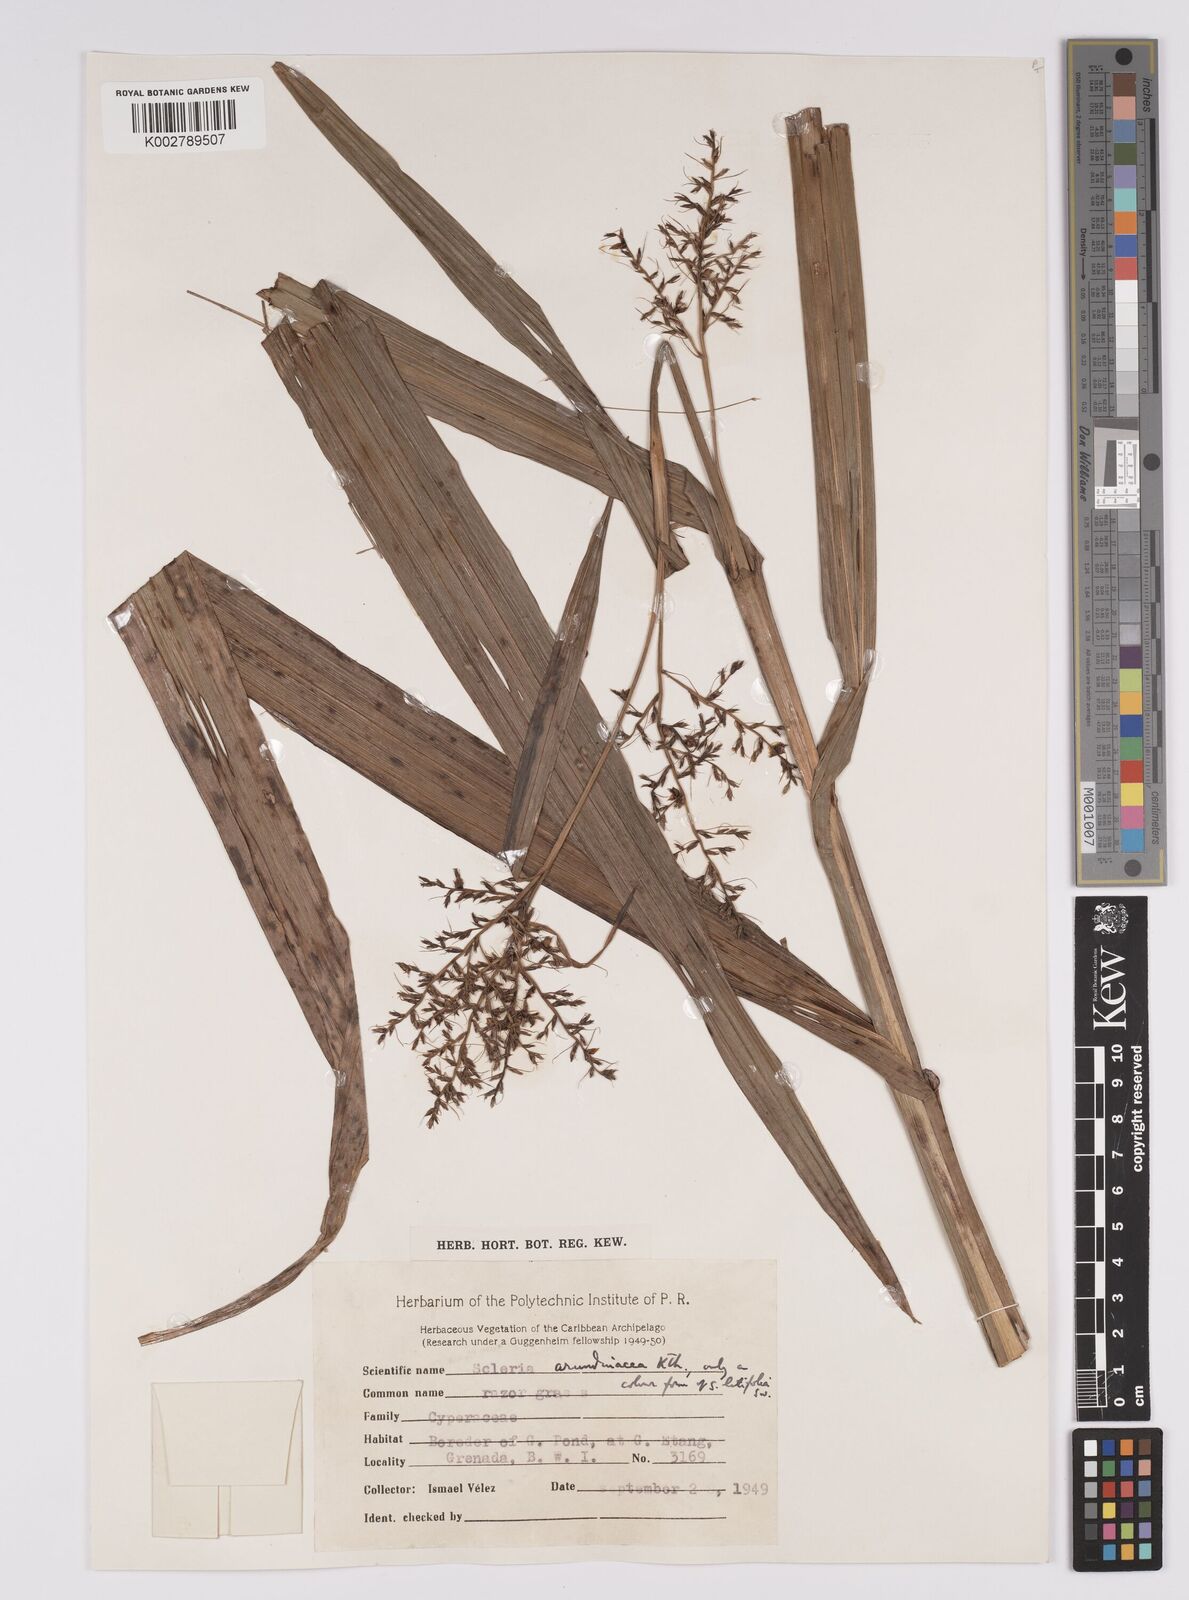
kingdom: Plantae
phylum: Tracheophyta
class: Liliopsida
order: Poales
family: Cyperaceae
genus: Scleria
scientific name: Scleria latifolia
